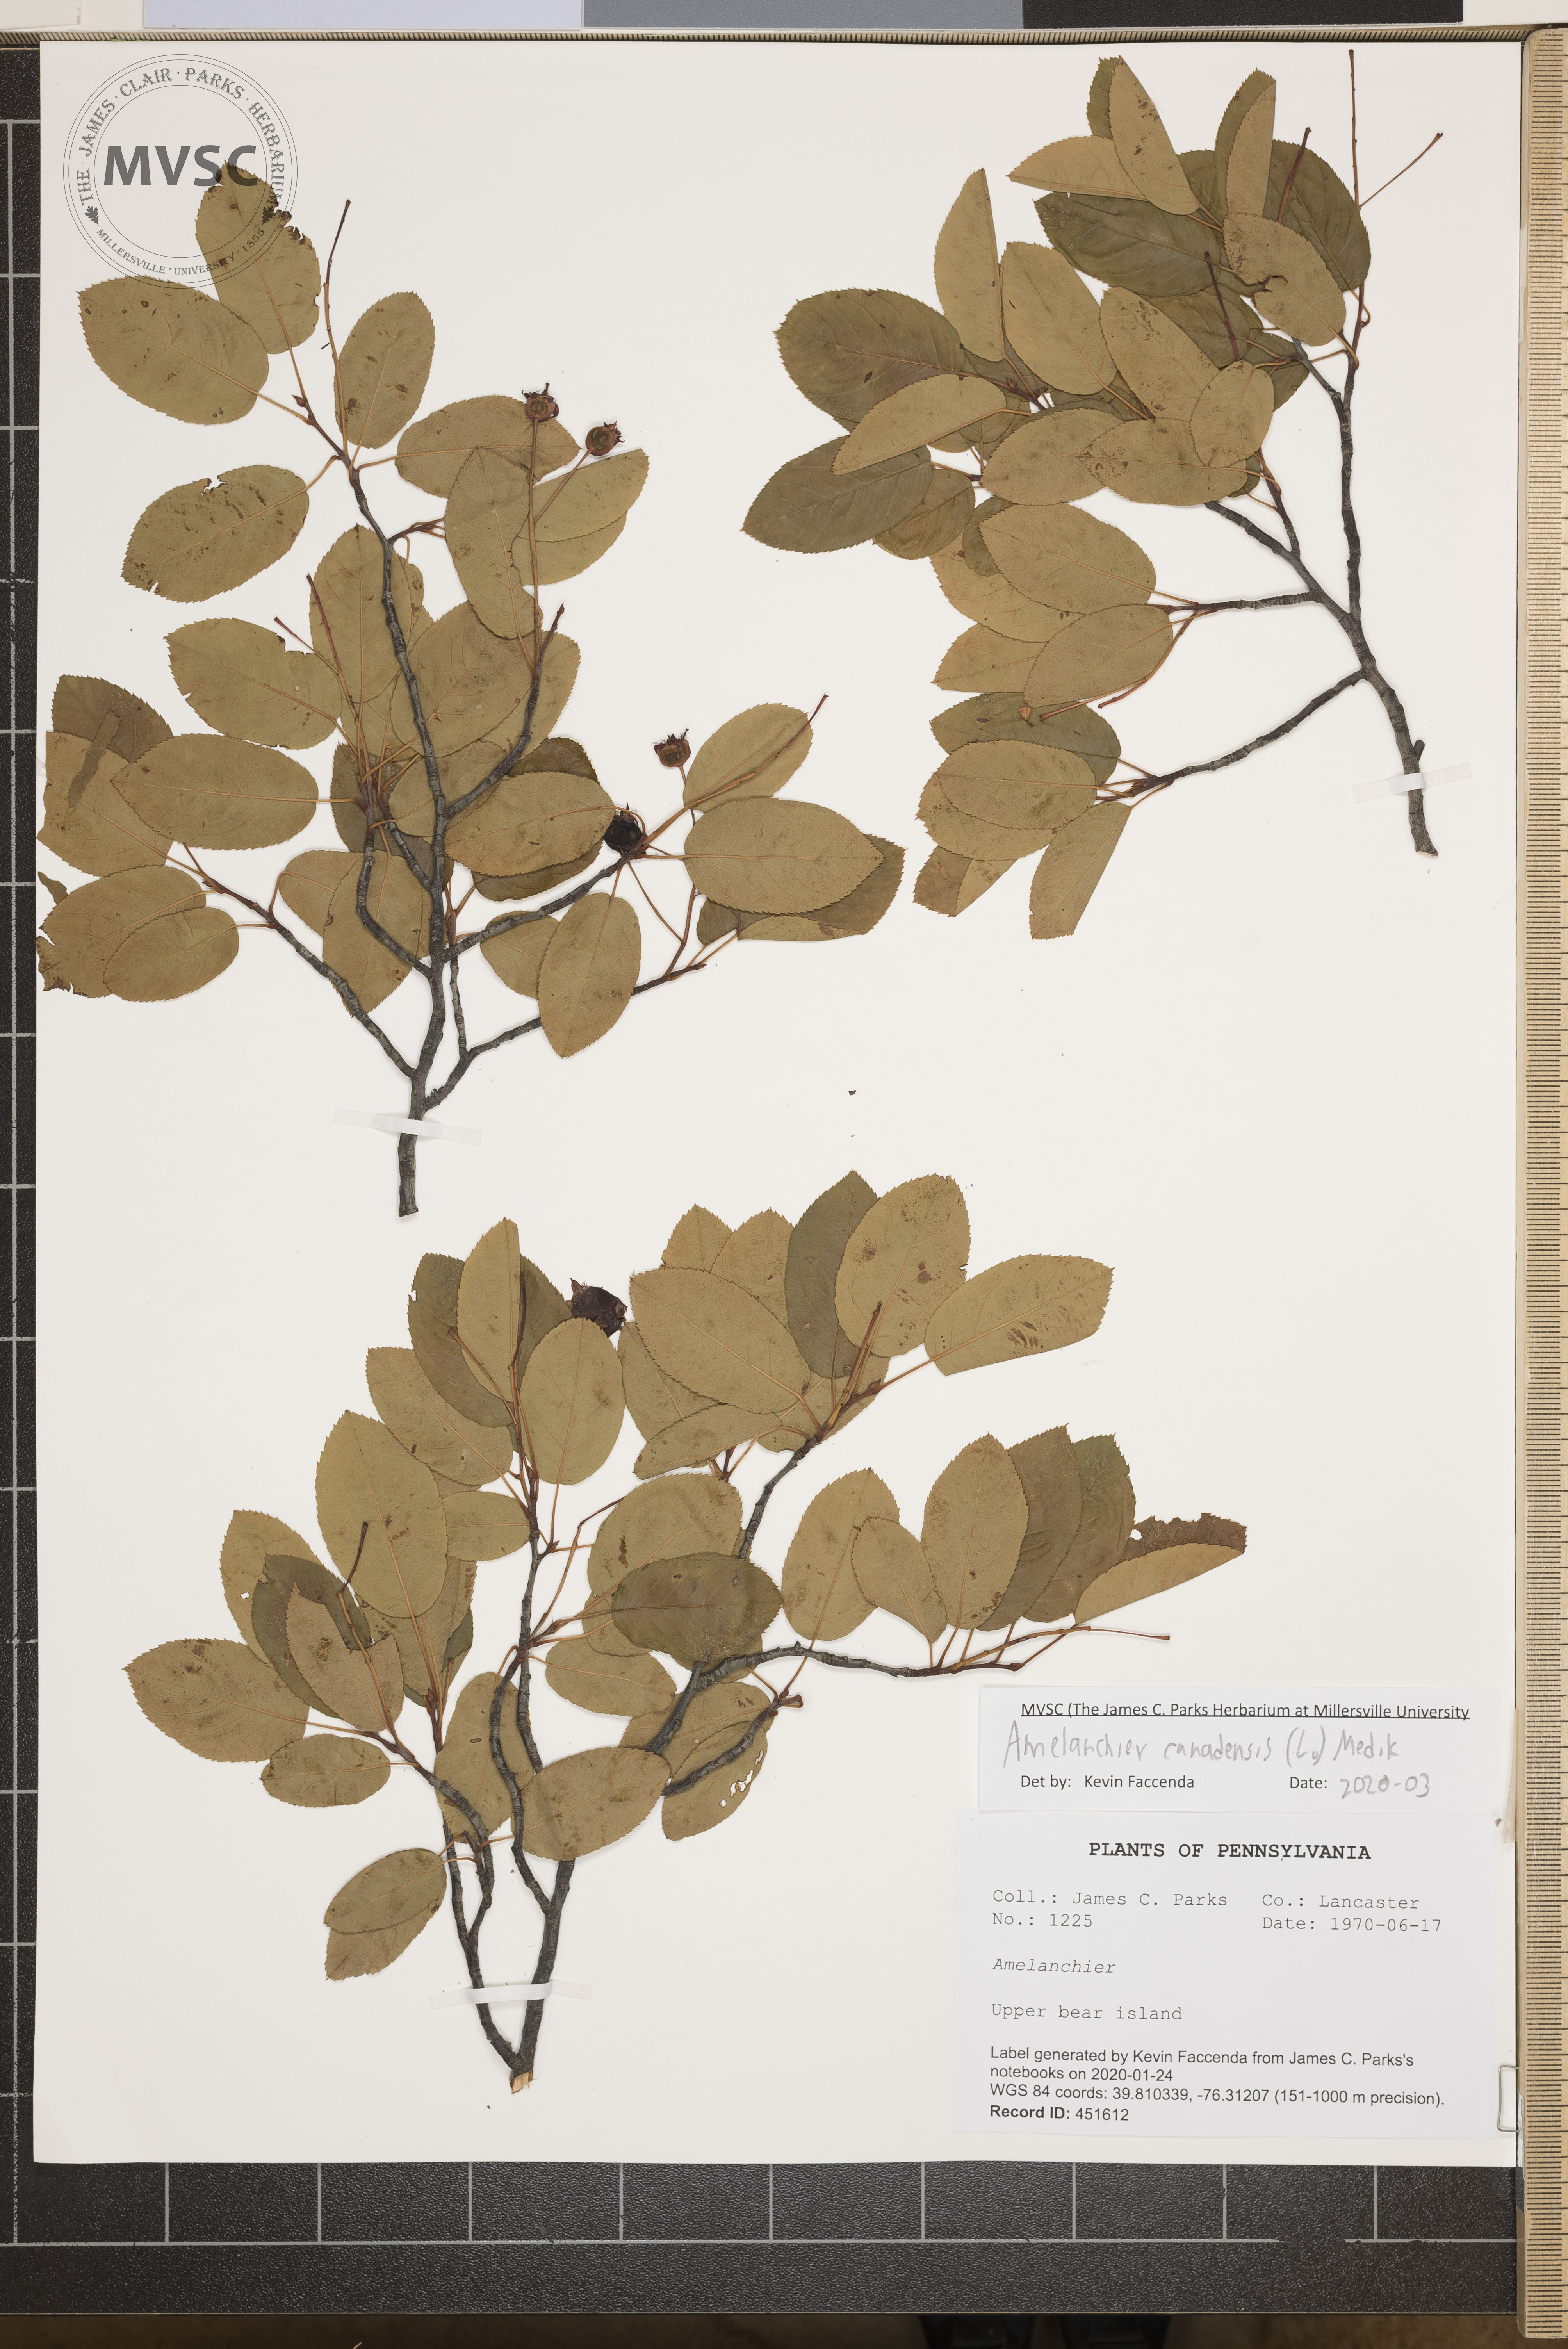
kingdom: Plantae
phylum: Tracheophyta
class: Magnoliopsida
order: Rosales
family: Rosaceae
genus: Amelanchier
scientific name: Amelanchier canadensis
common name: Thicket serviceberry
